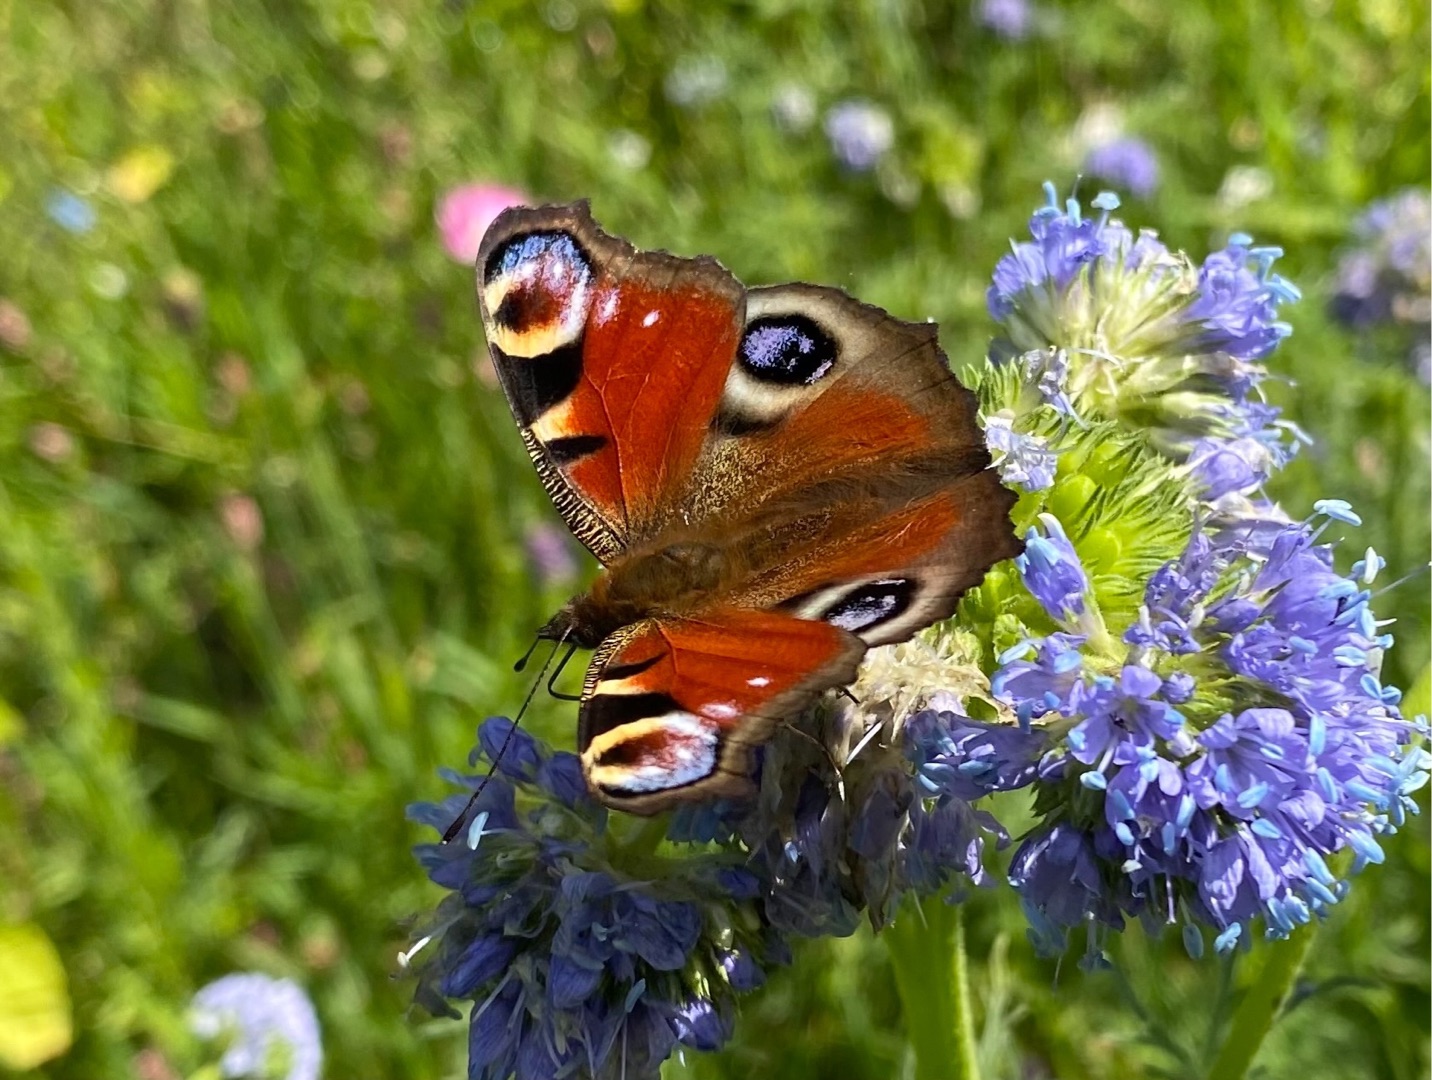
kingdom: Animalia
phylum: Arthropoda
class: Insecta
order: Lepidoptera
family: Nymphalidae
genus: Aglais
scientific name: Aglais io
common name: Dagpåfugleøje
